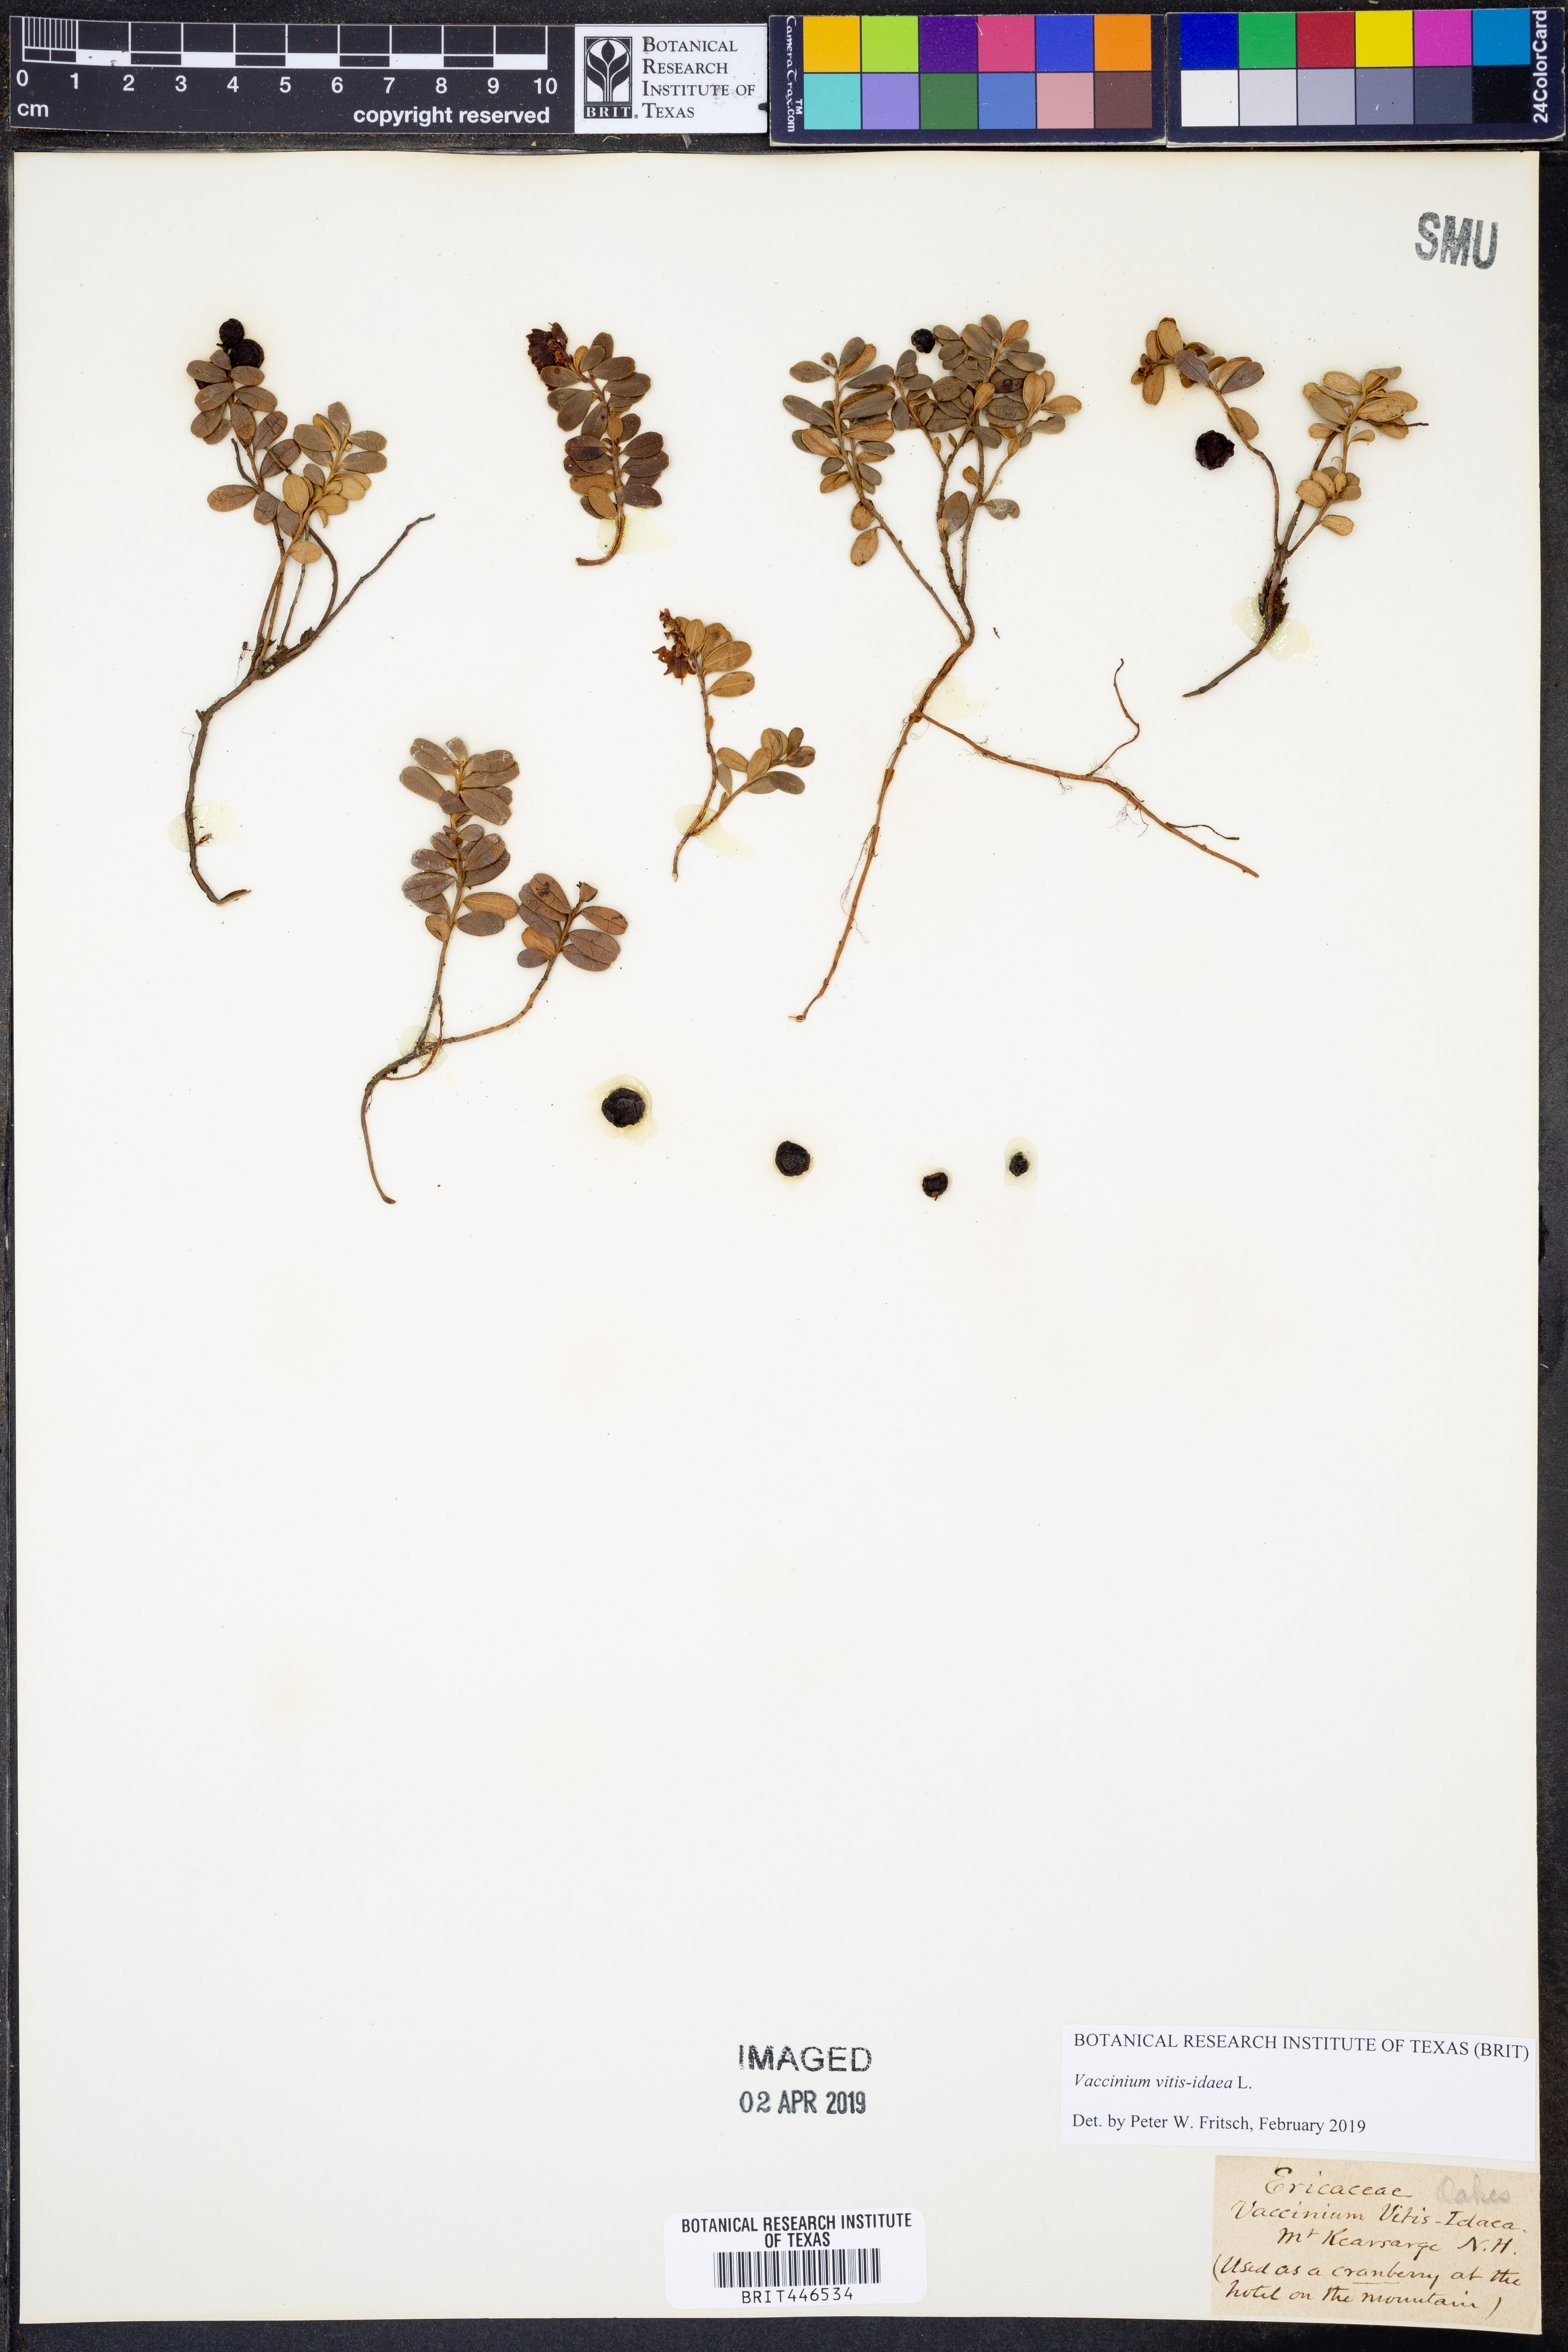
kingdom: Plantae
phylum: Tracheophyta
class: Magnoliopsida
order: Ericales
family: Ericaceae
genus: Vaccinium
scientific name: Vaccinium vitis-idaea
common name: Cowberry
